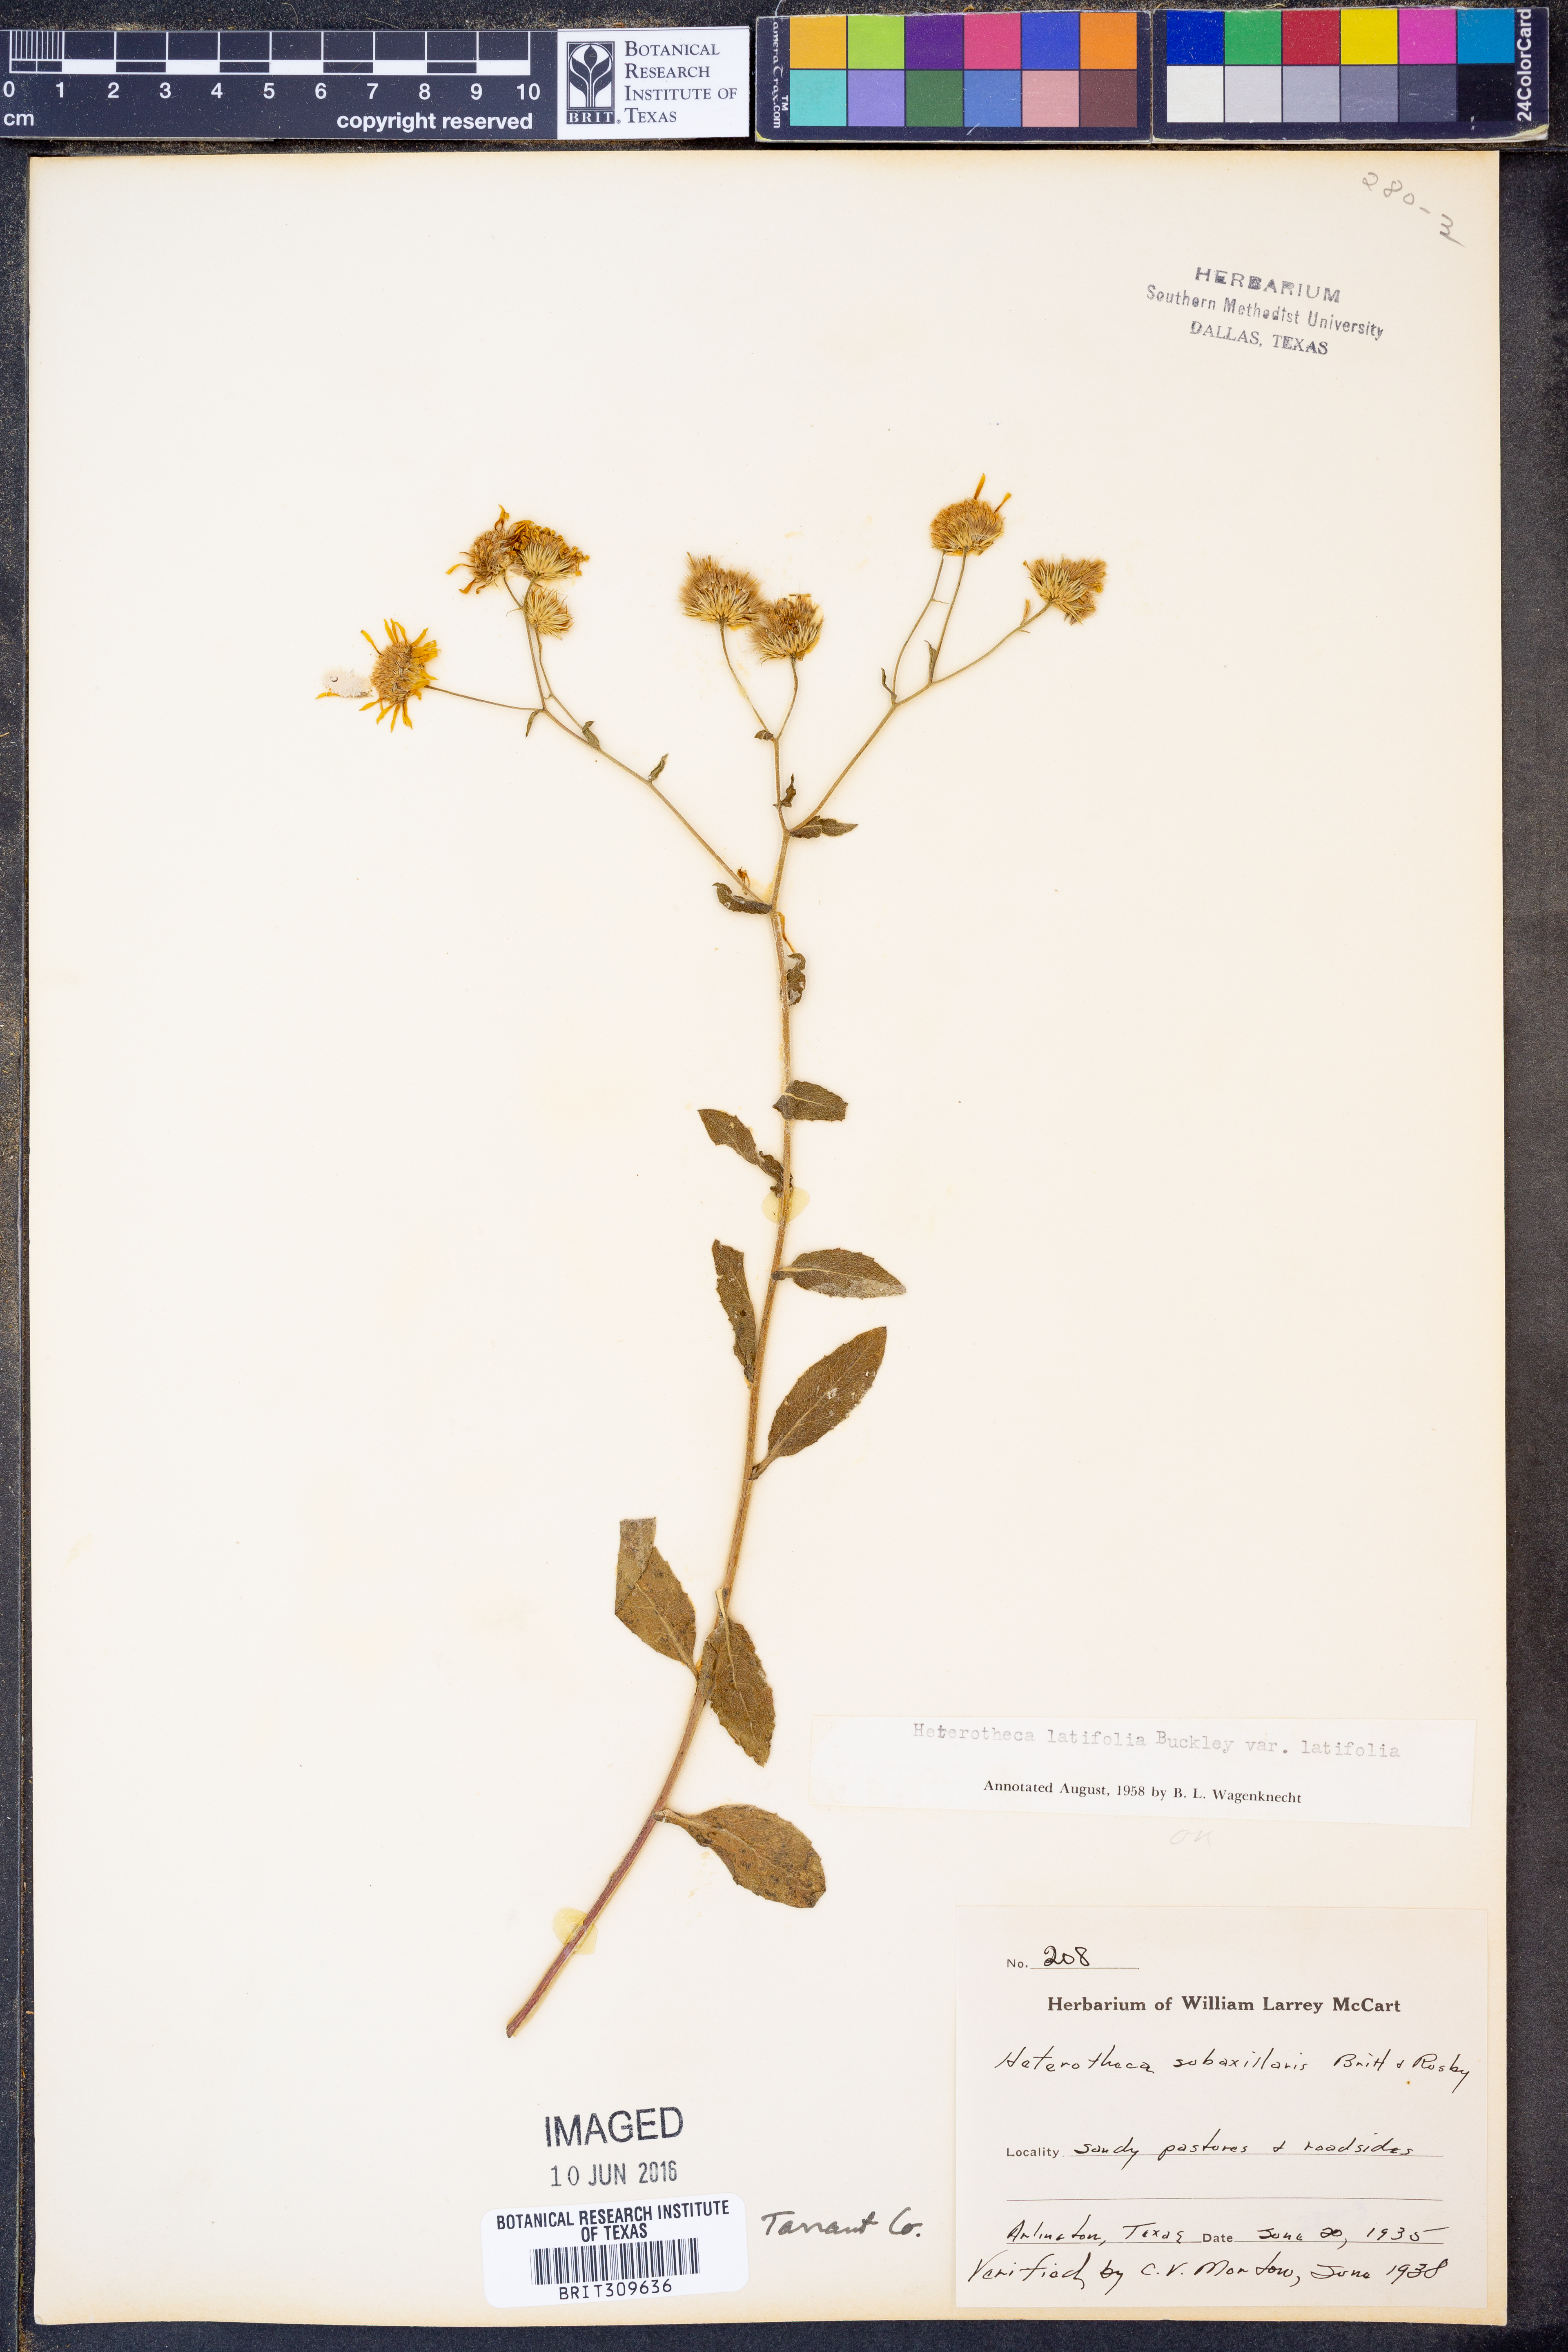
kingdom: Plantae
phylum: Tracheophyta
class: Magnoliopsida
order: Asterales
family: Asteraceae
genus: Heterotheca
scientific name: Heterotheca subaxillaris
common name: Camphorweed
